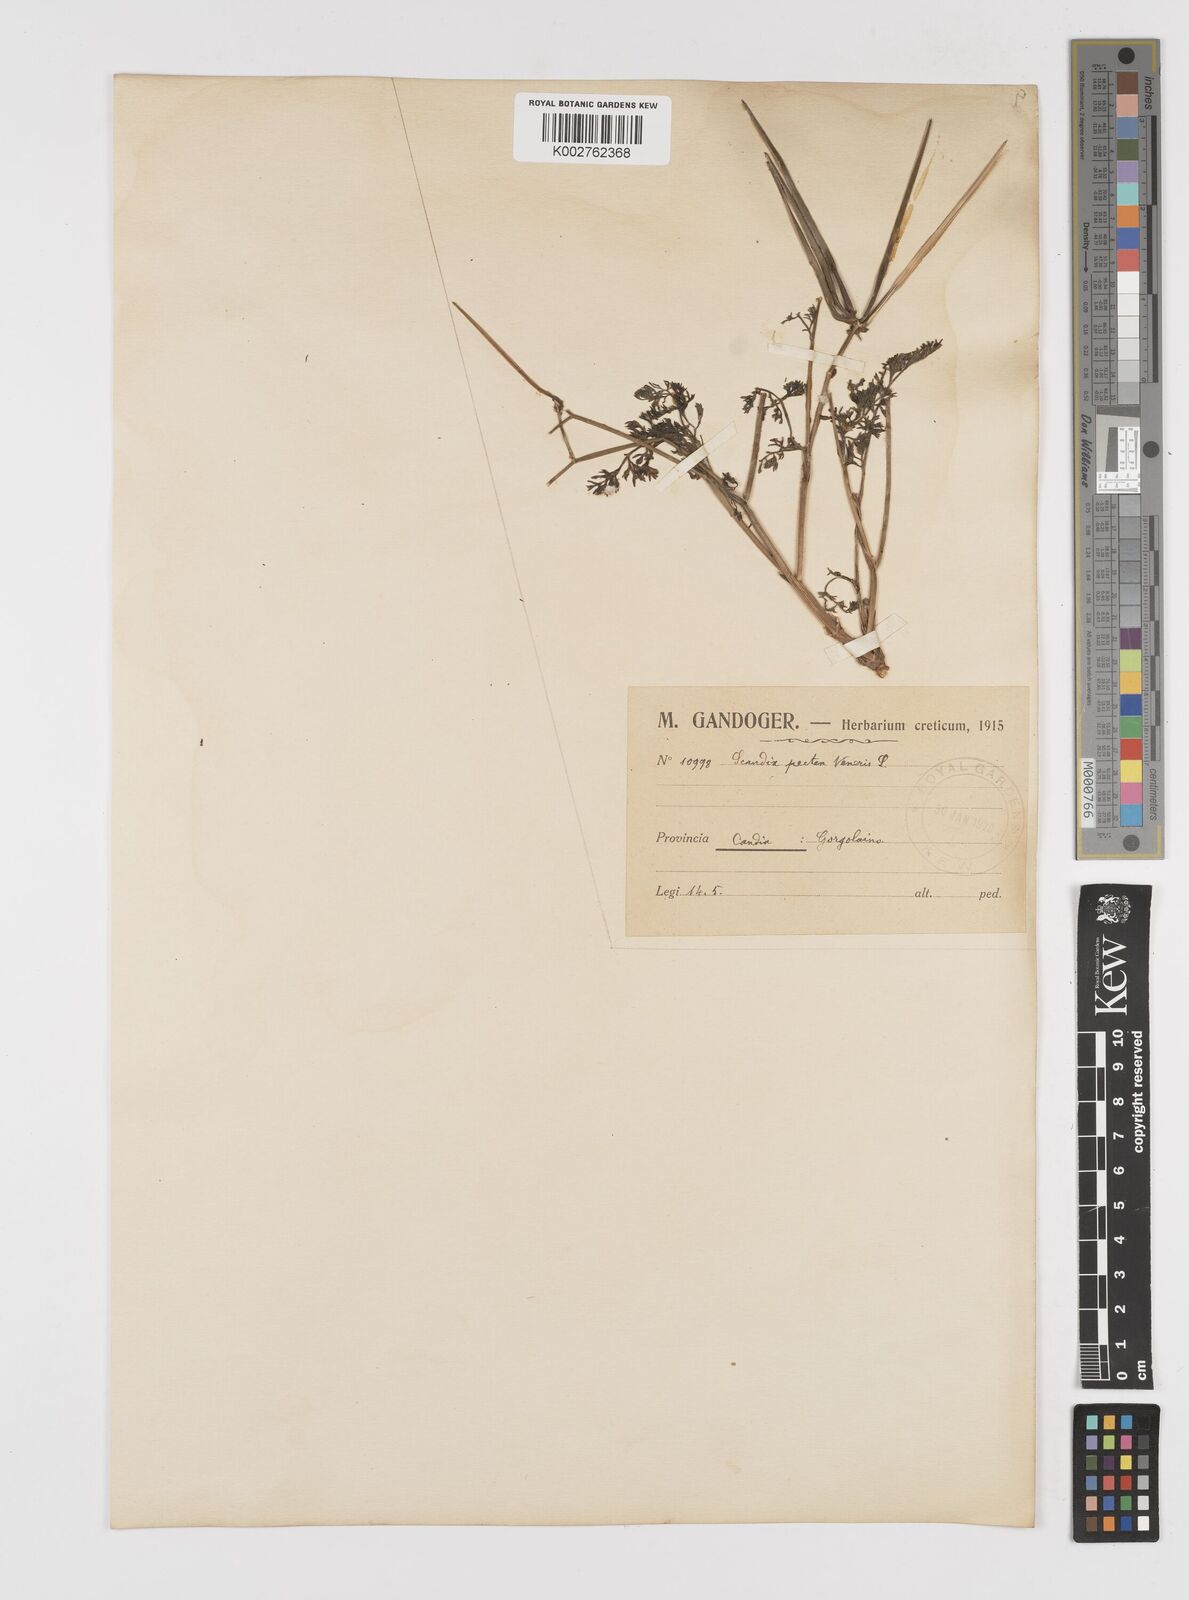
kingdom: Plantae
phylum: Tracheophyta
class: Magnoliopsida
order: Apiales
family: Apiaceae
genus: Scandix
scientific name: Scandix pecten-veneris
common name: Shepherd's-needle
